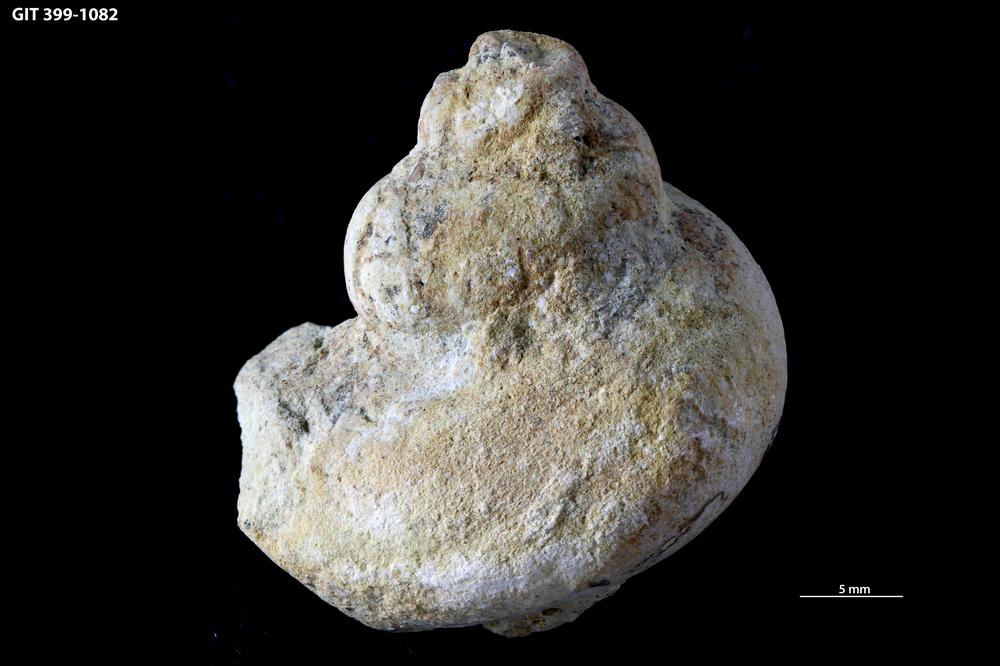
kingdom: Plantae
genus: Halopoa
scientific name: Halopoa
